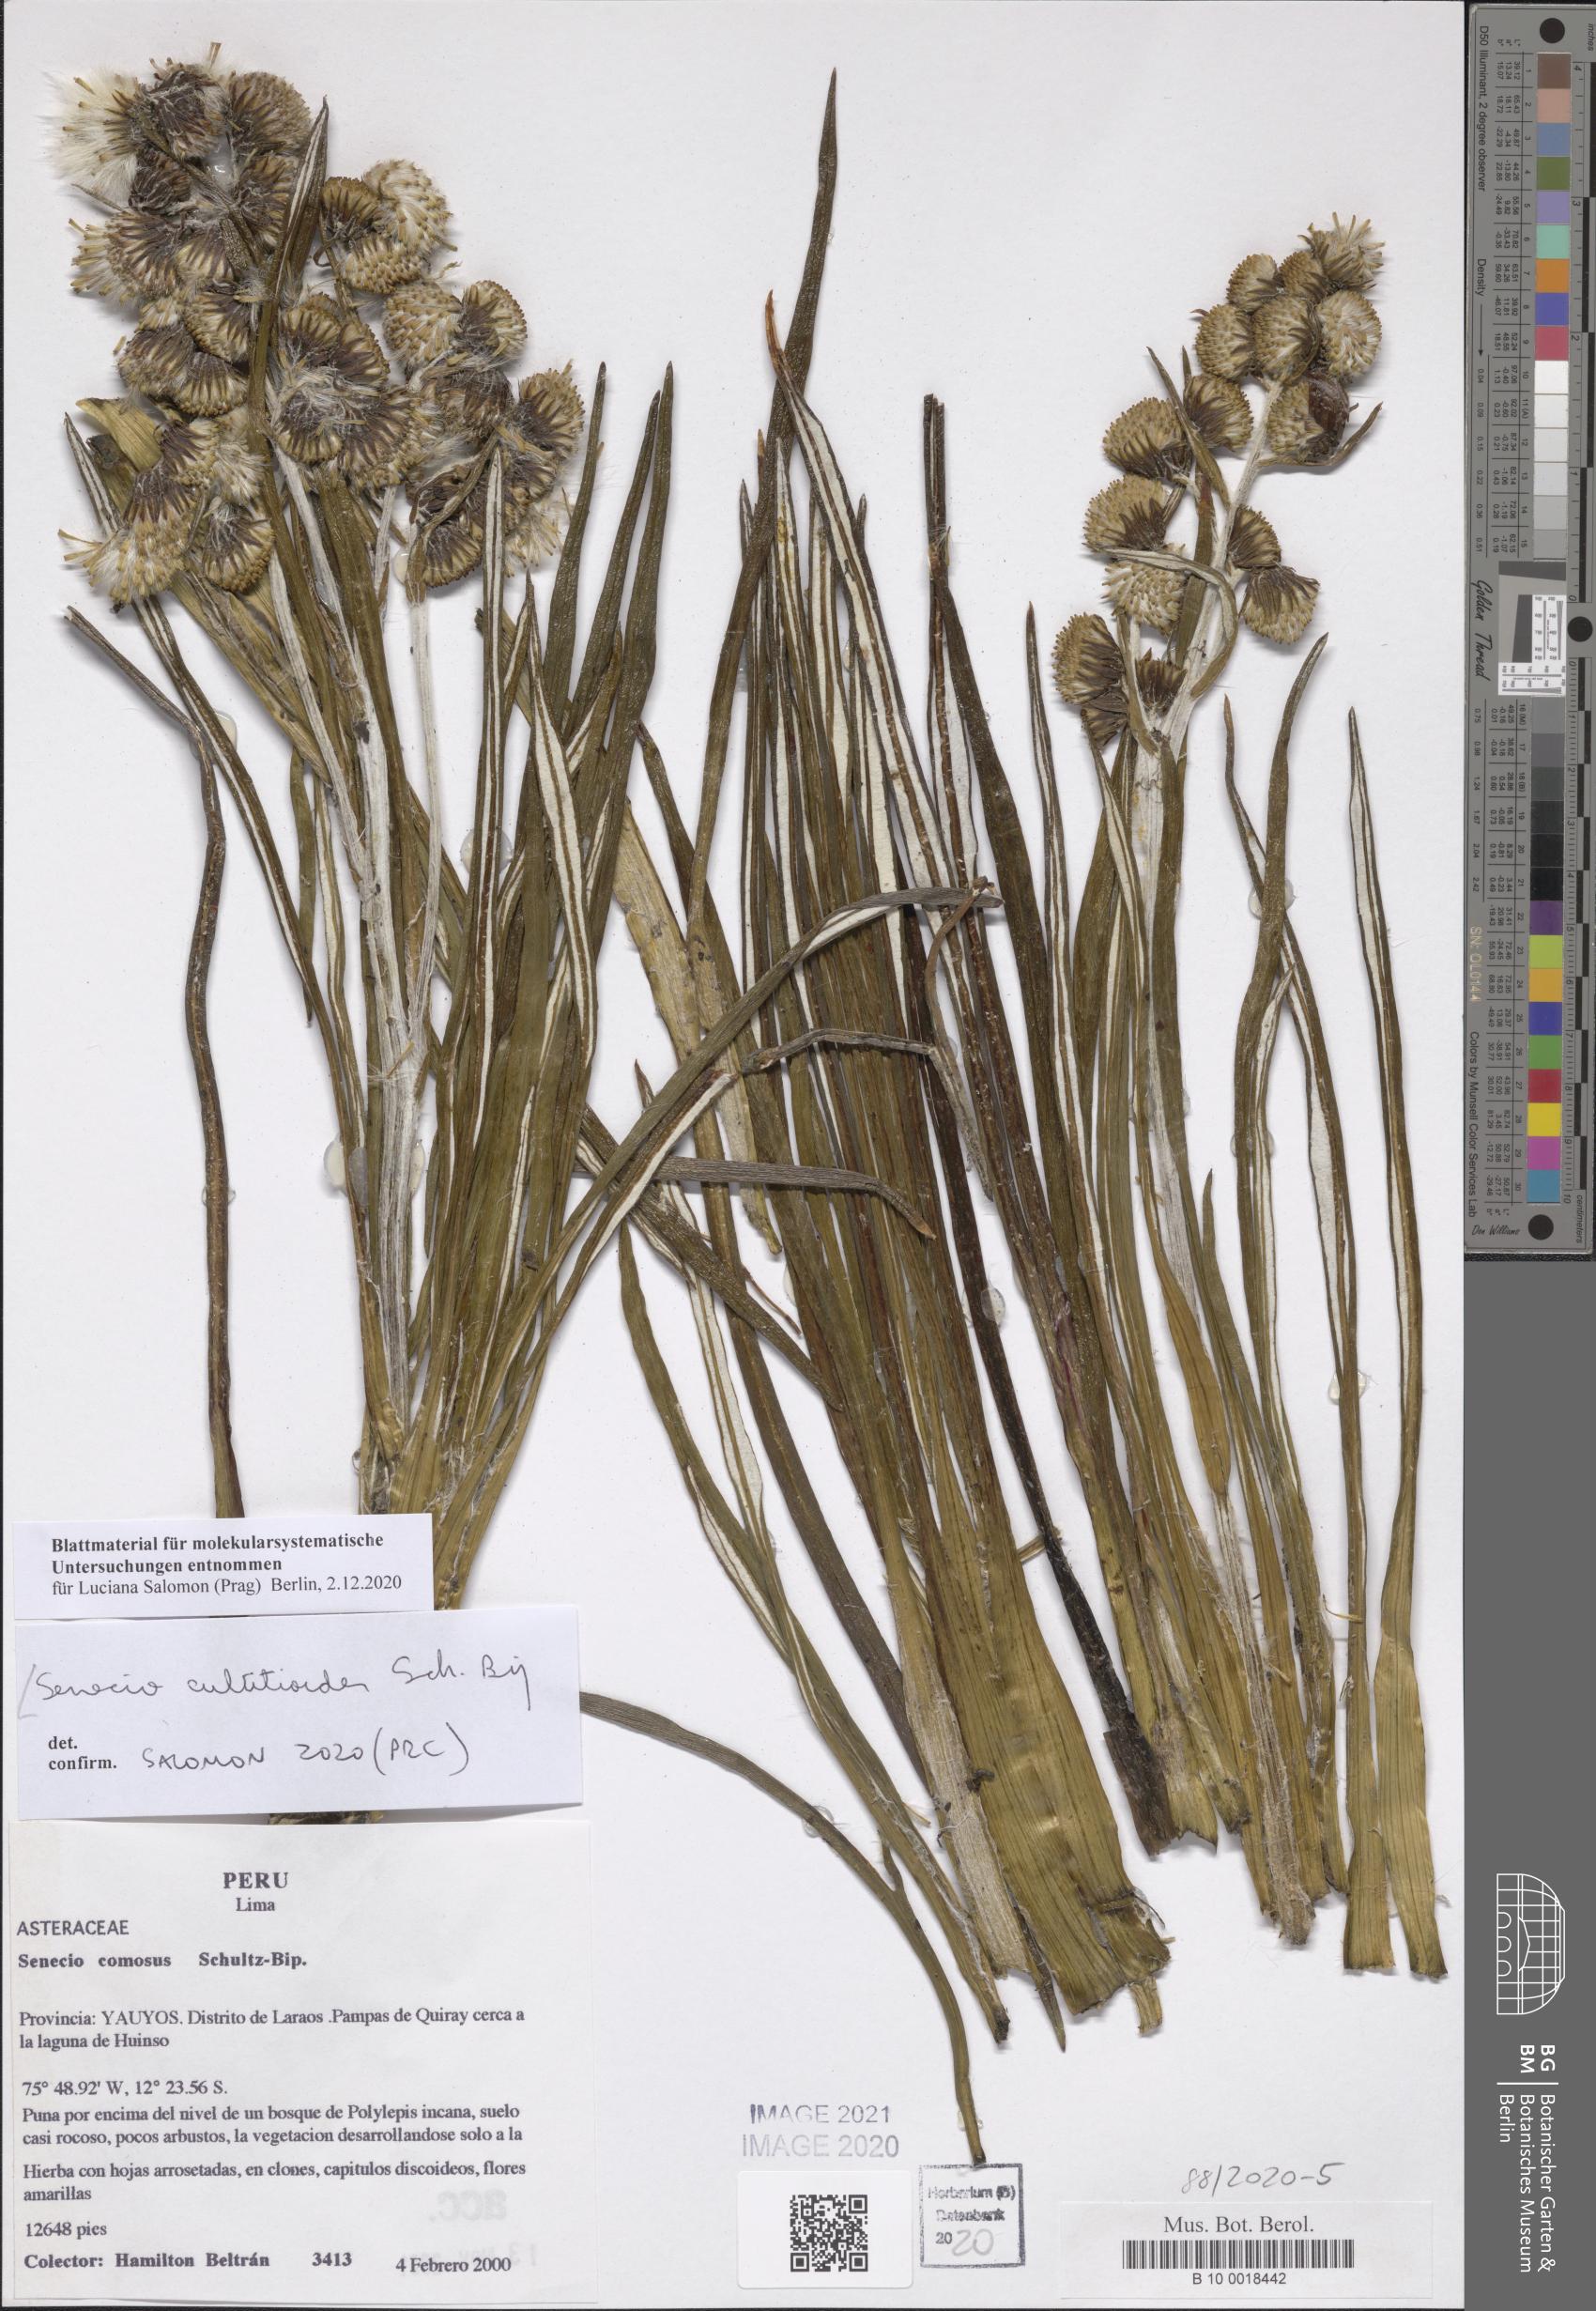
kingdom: Plantae
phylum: Tracheophyta
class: Magnoliopsida
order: Asterales
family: Asteraceae
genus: Senecio
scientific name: Senecio comosus
